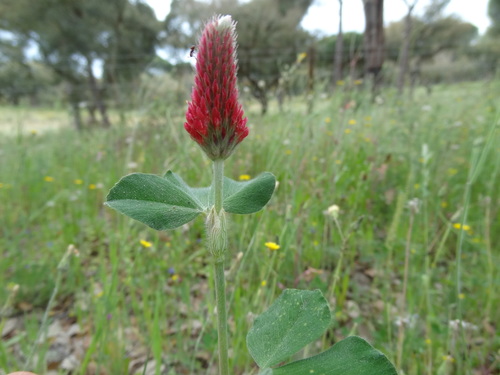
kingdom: Plantae
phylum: Tracheophyta
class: Magnoliopsida
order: Fabales
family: Fabaceae
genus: Trifolium
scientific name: Trifolium incarnatum
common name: Crimson clover
